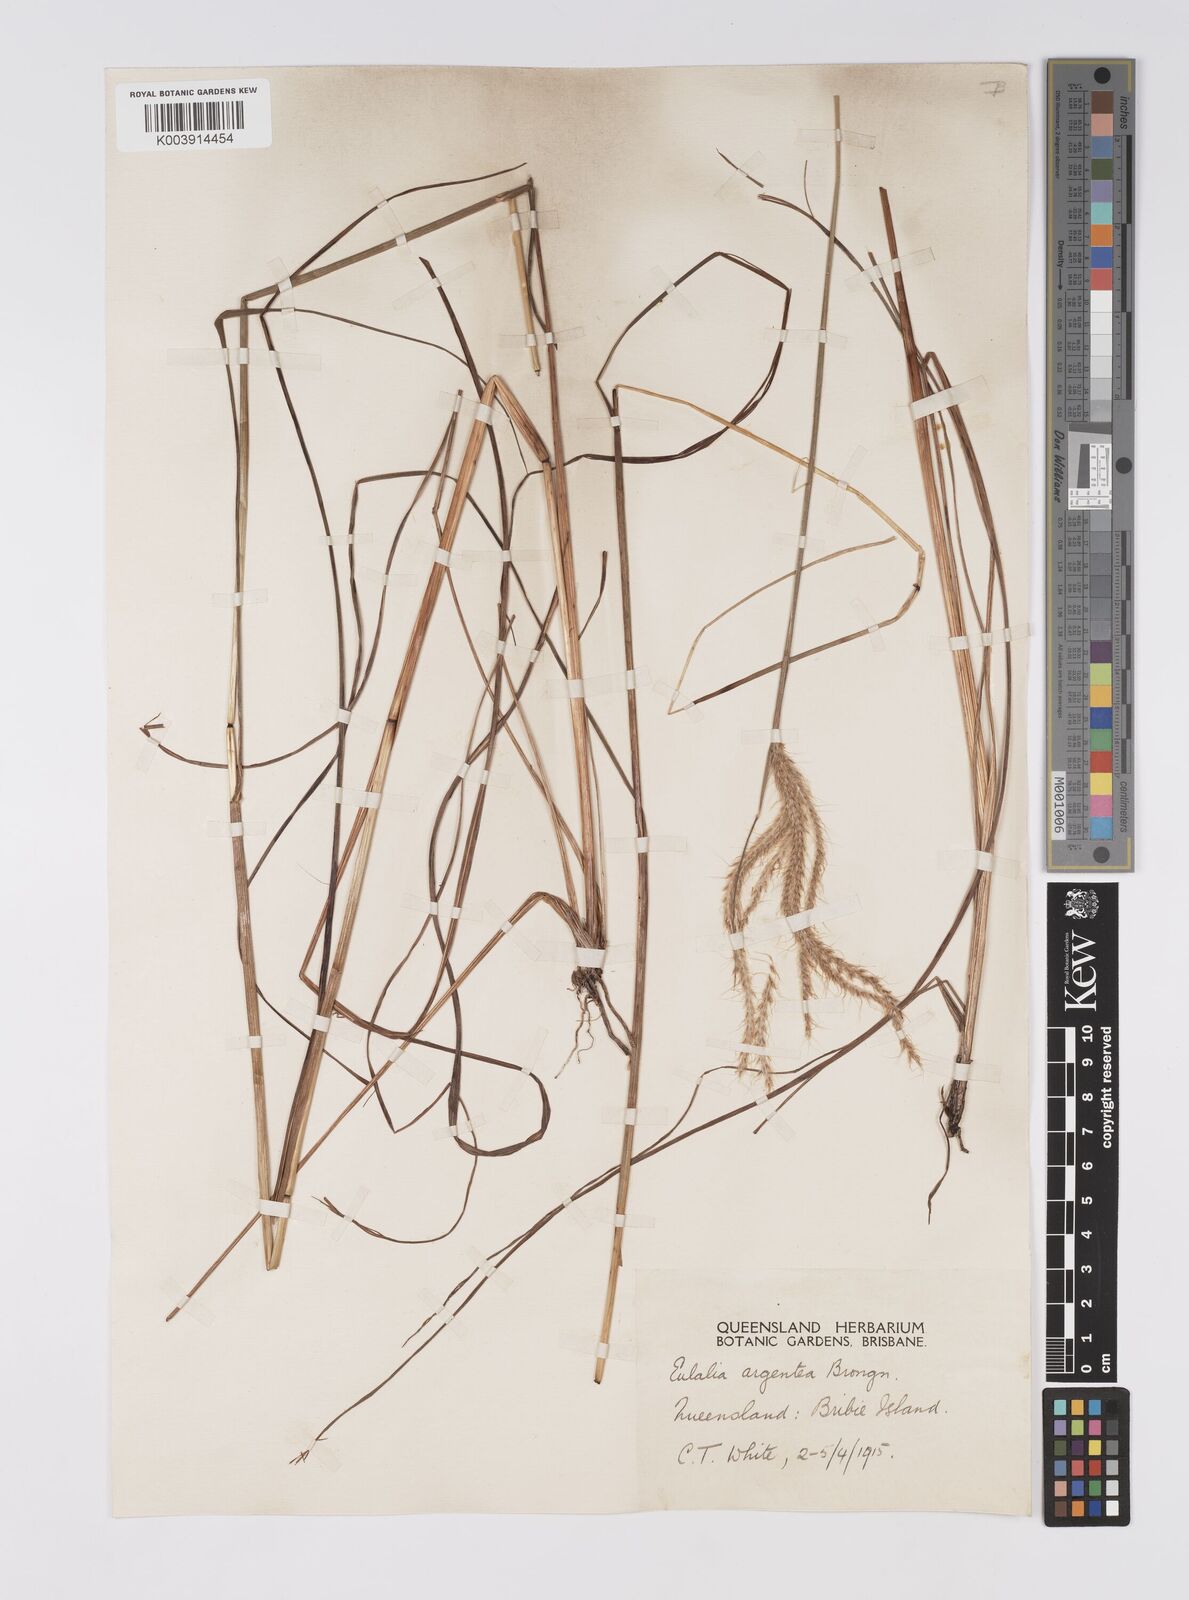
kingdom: Plantae
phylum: Tracheophyta
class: Liliopsida
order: Poales
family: Poaceae
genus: Pseudopogonatherum
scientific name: Pseudopogonatherum trispicatum
